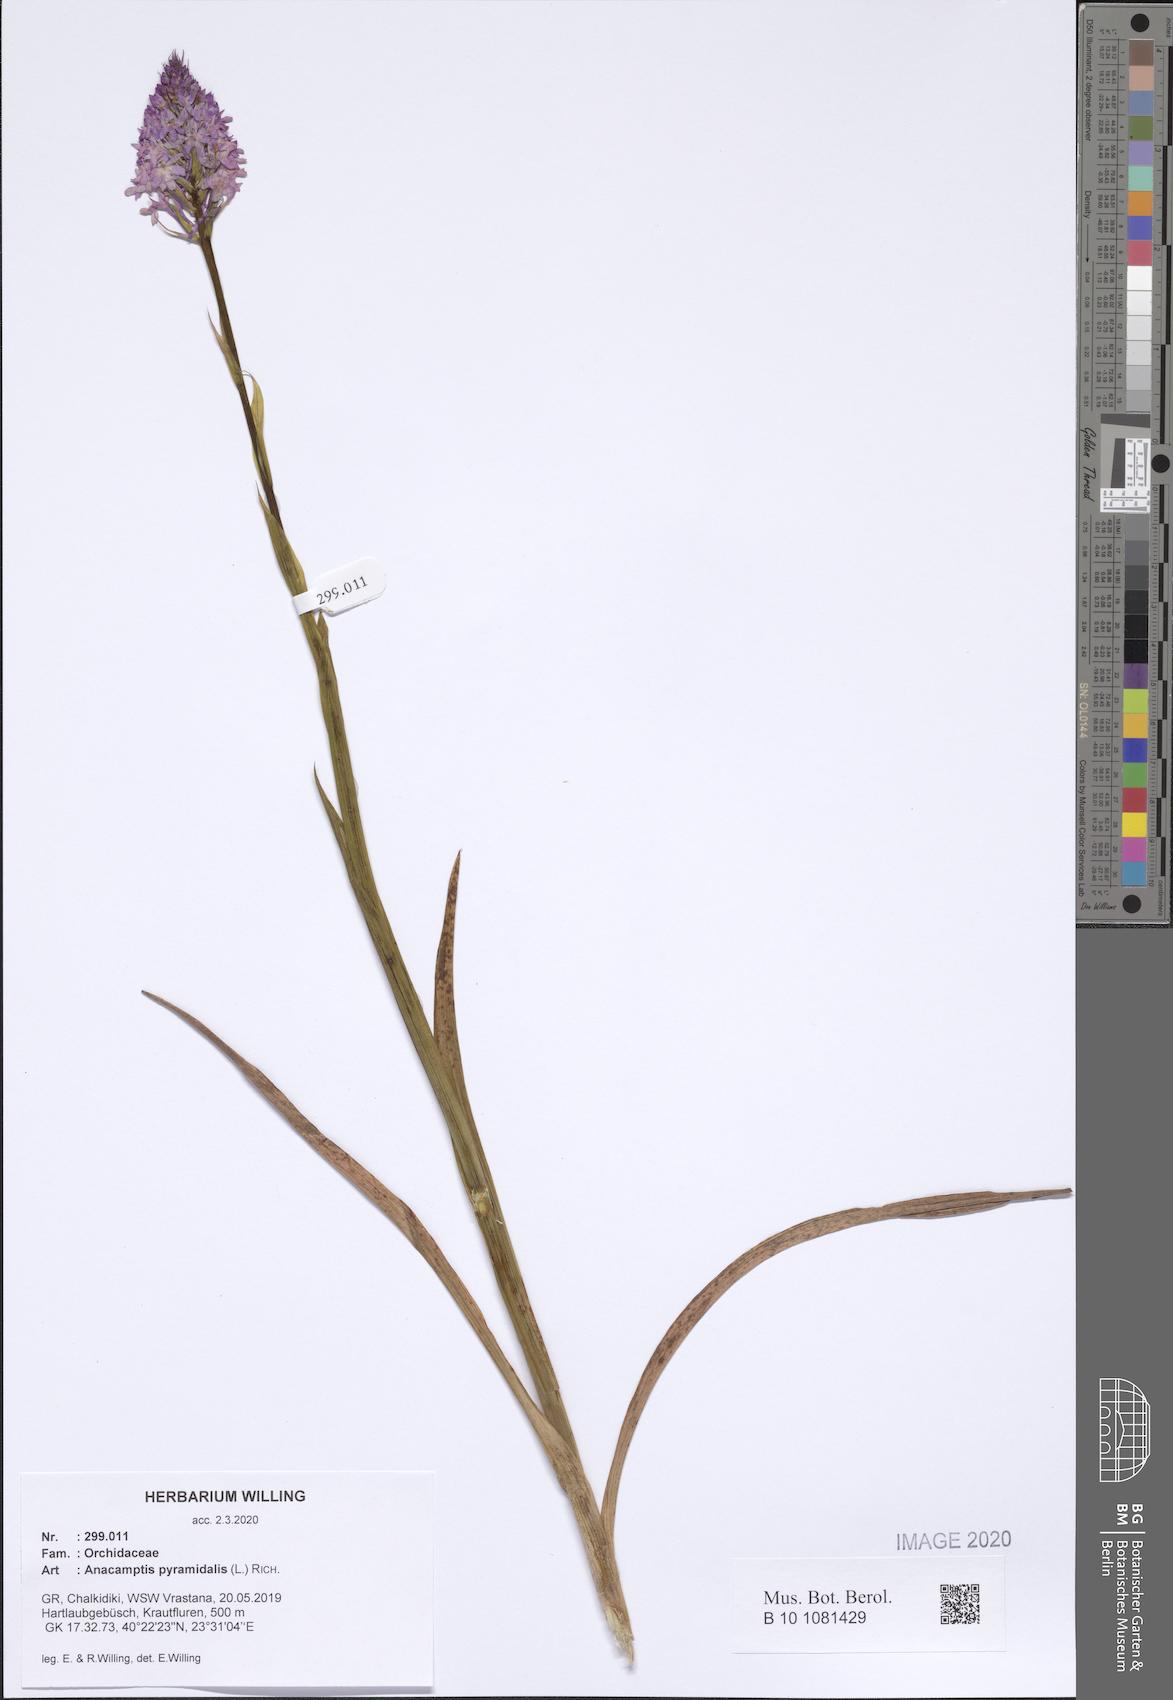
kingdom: Plantae
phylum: Tracheophyta
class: Liliopsida
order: Asparagales
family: Orchidaceae
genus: Anacamptis
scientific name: Anacamptis pyramidalis
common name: Pyramidal orchid
